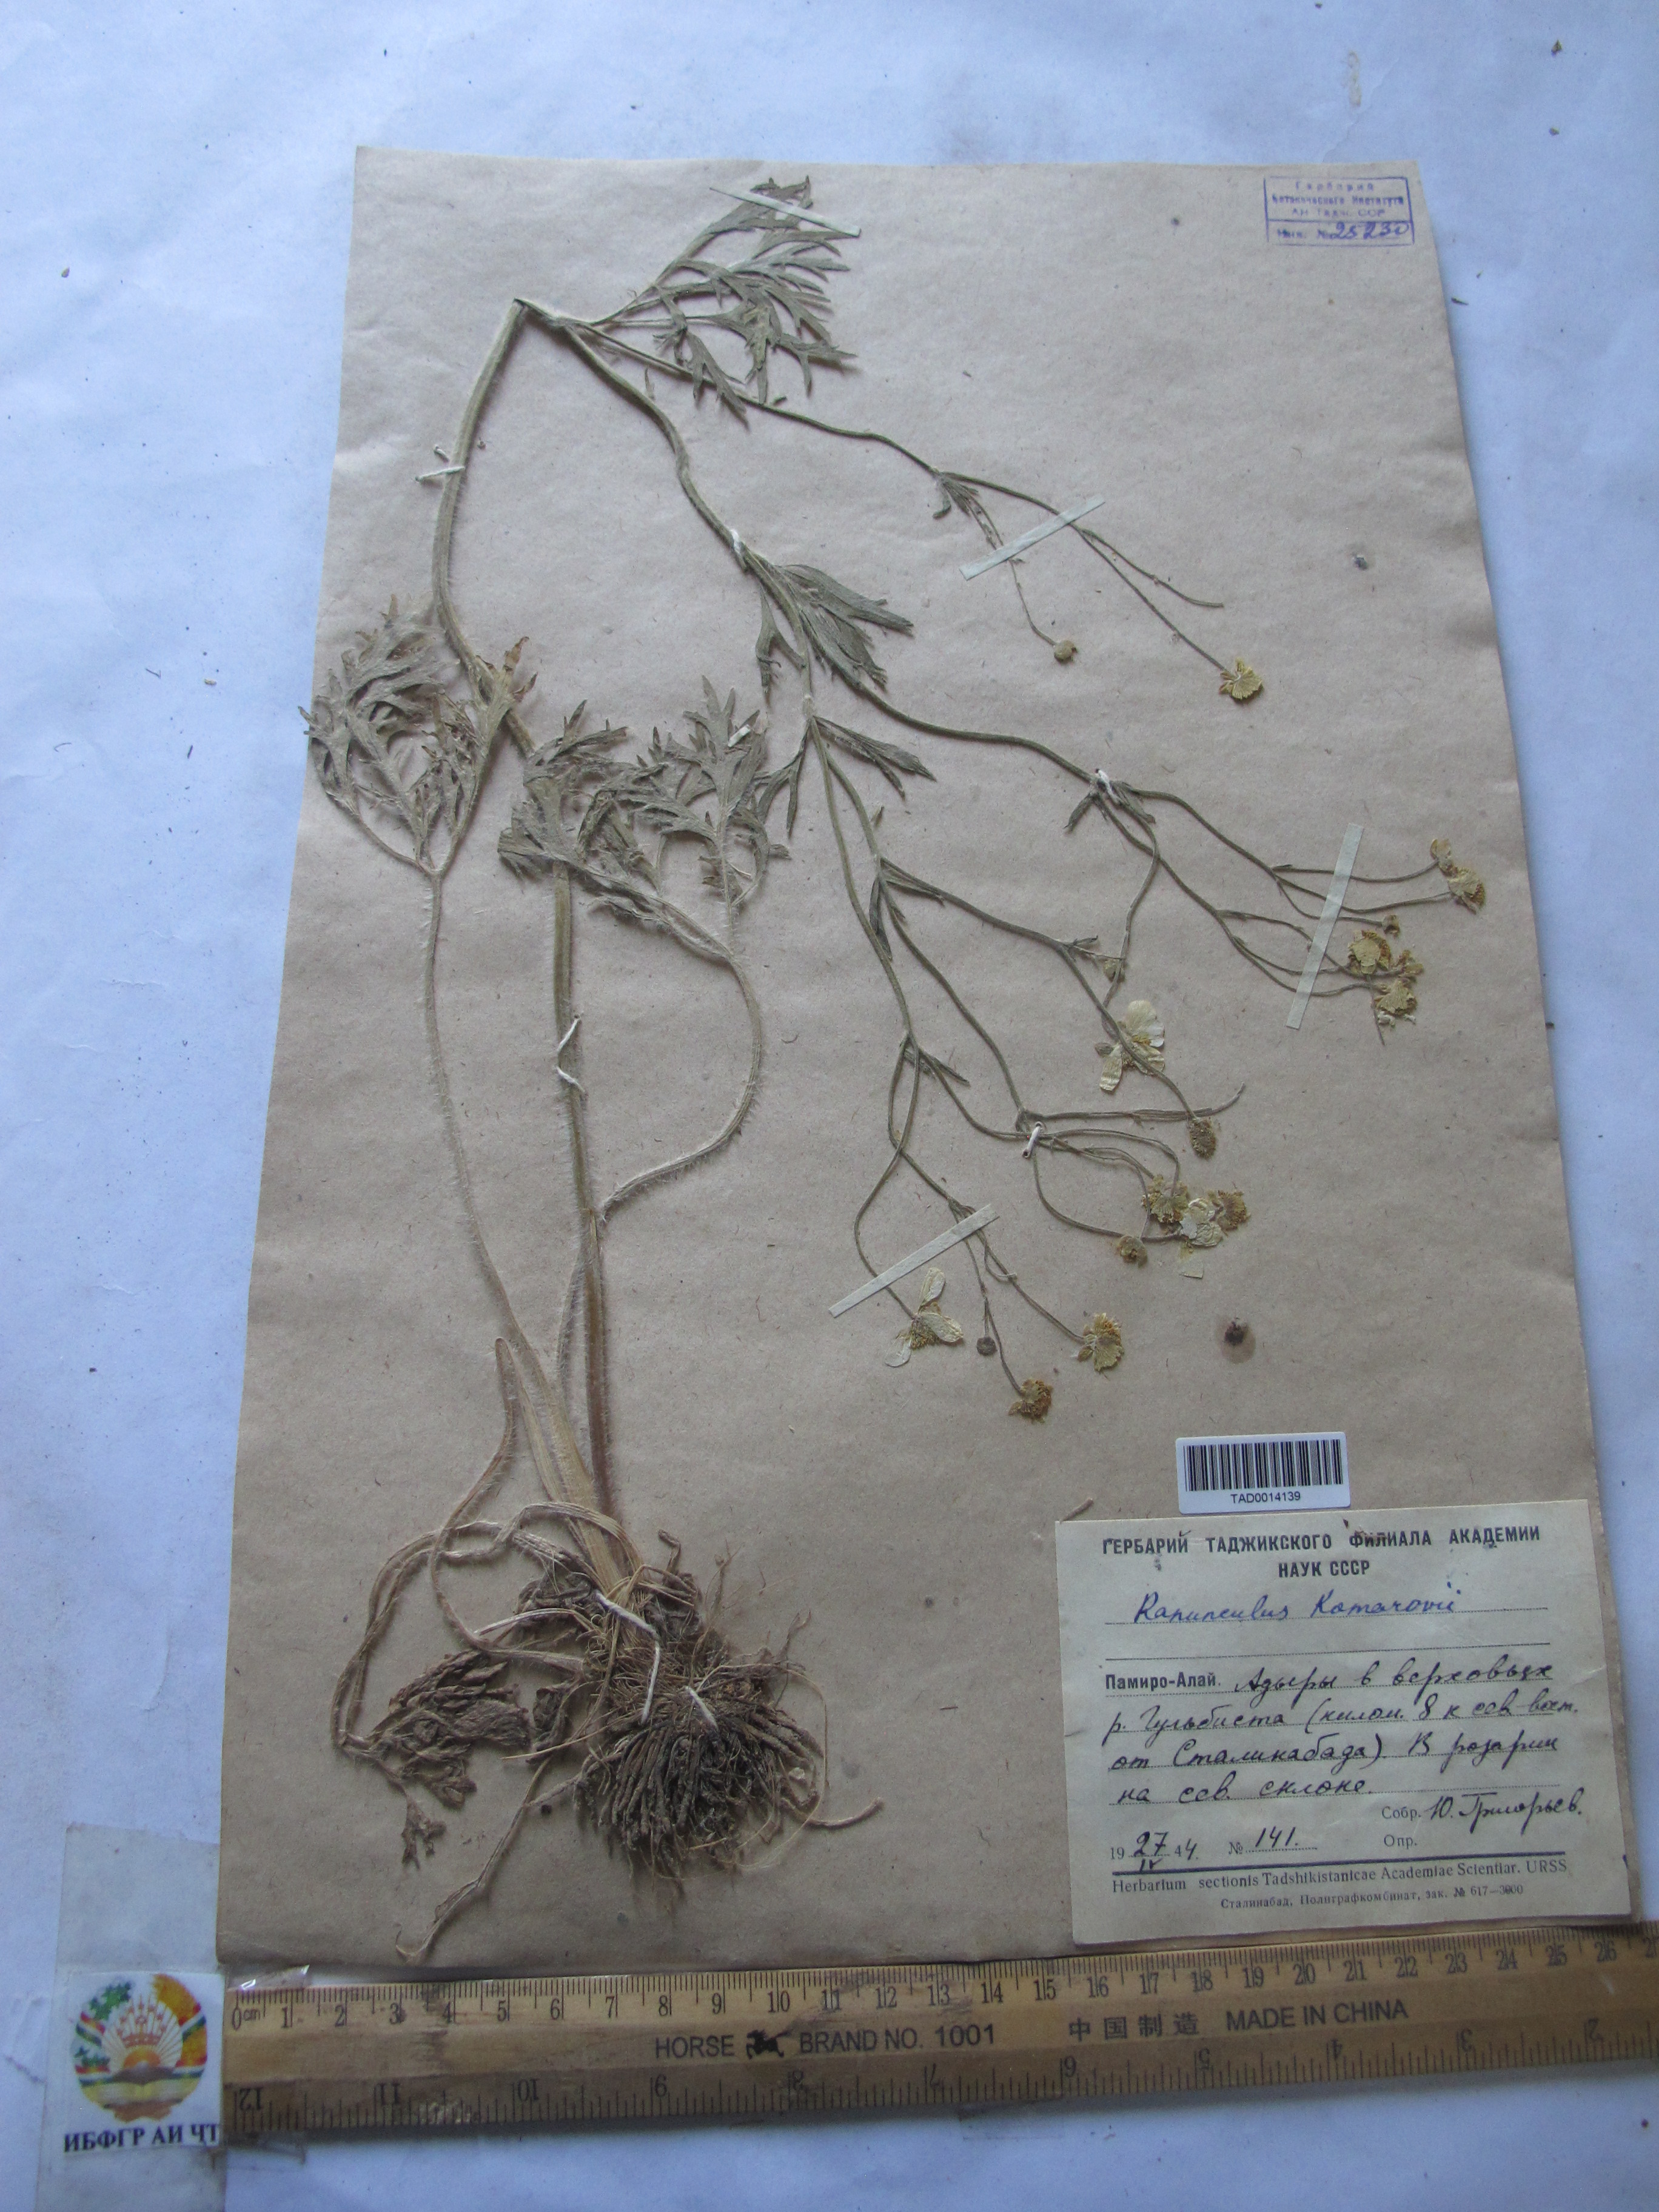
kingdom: Plantae
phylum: Tracheophyta
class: Magnoliopsida
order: Ranunculales
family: Ranunculaceae
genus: Ranunculus
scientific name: Ranunculus komarovii
